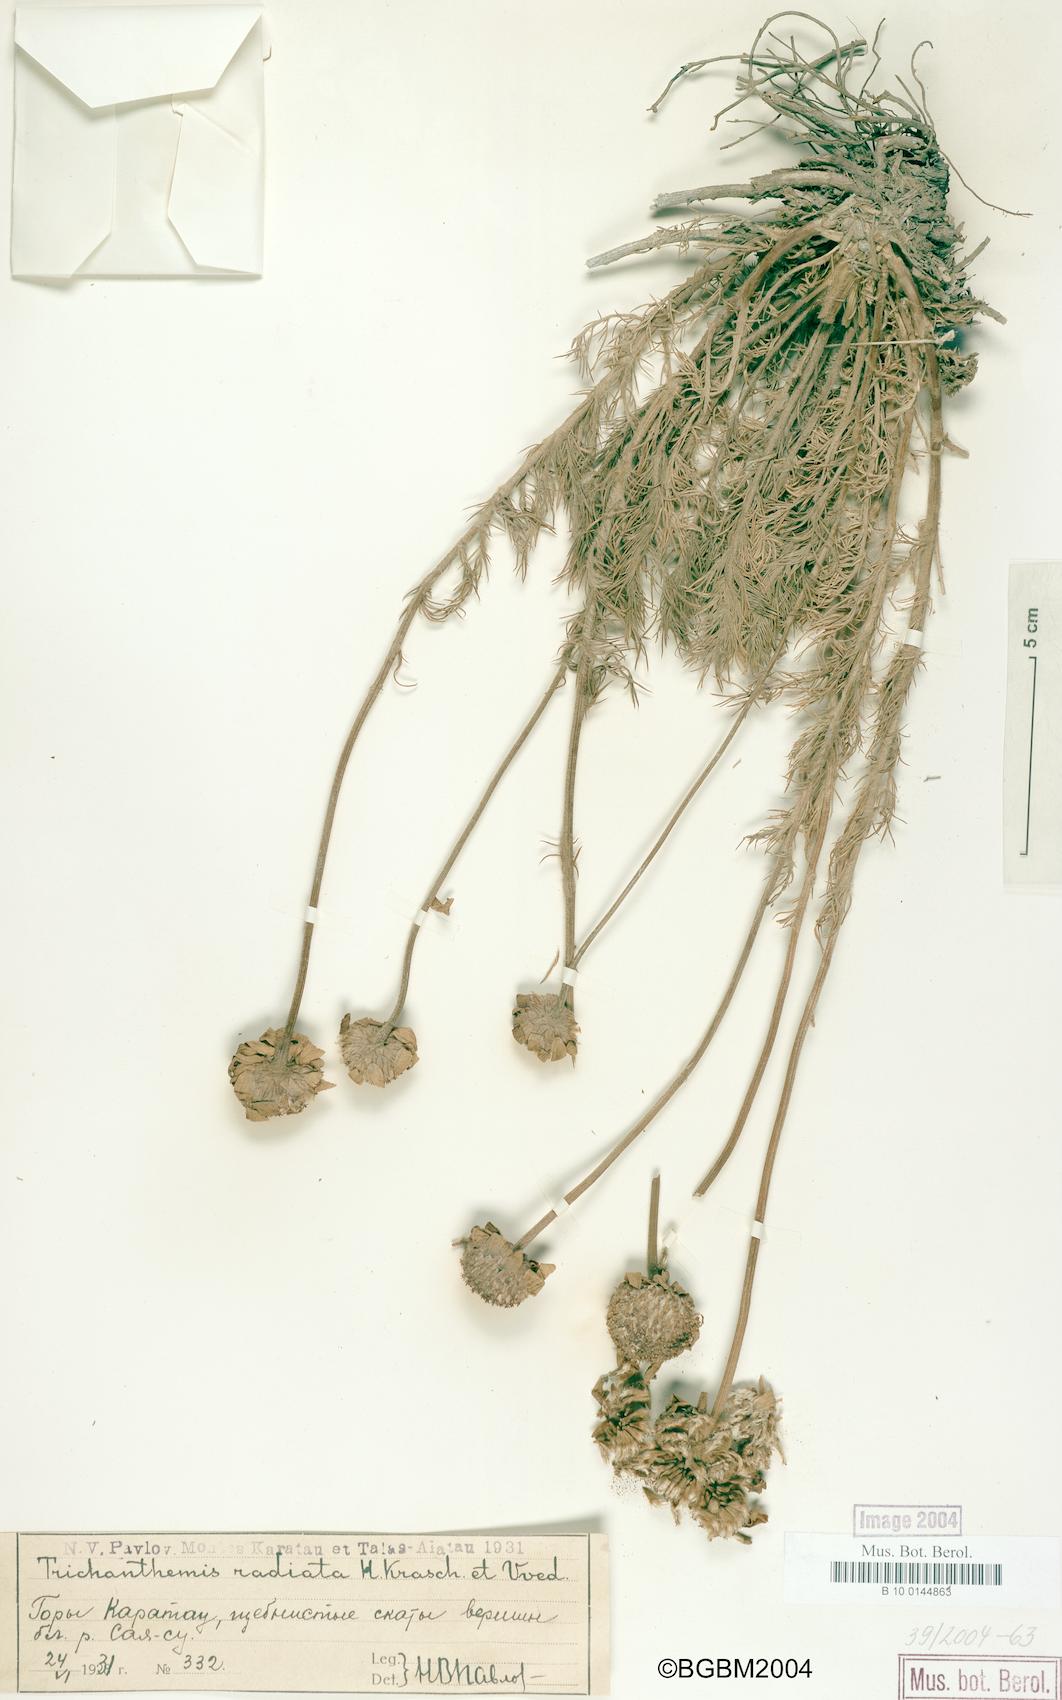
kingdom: Plantae
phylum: Tracheophyta
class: Magnoliopsida
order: Asterales
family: Asteraceae
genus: Trichanthemis
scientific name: Trichanthemis radiata
